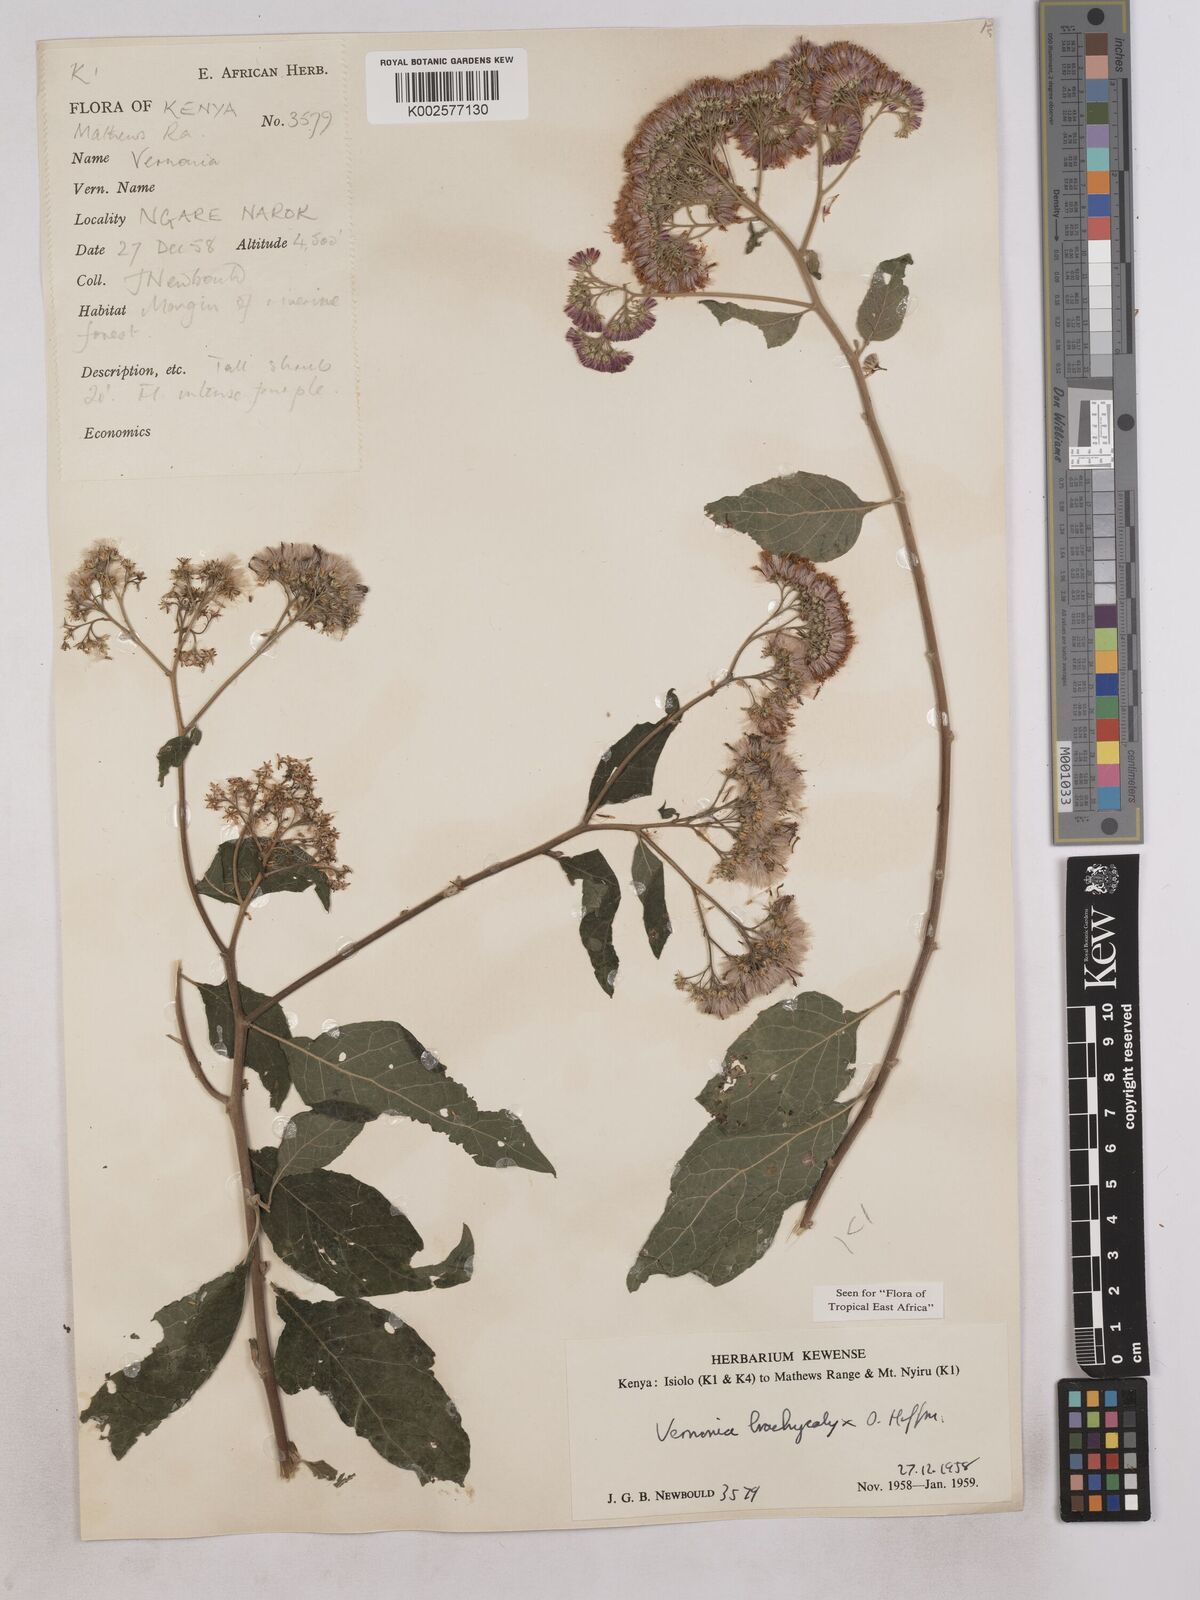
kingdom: Plantae
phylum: Tracheophyta
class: Magnoliopsida
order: Asterales
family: Asteraceae
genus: Hoffmannanthus
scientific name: Hoffmannanthus abbotianus
